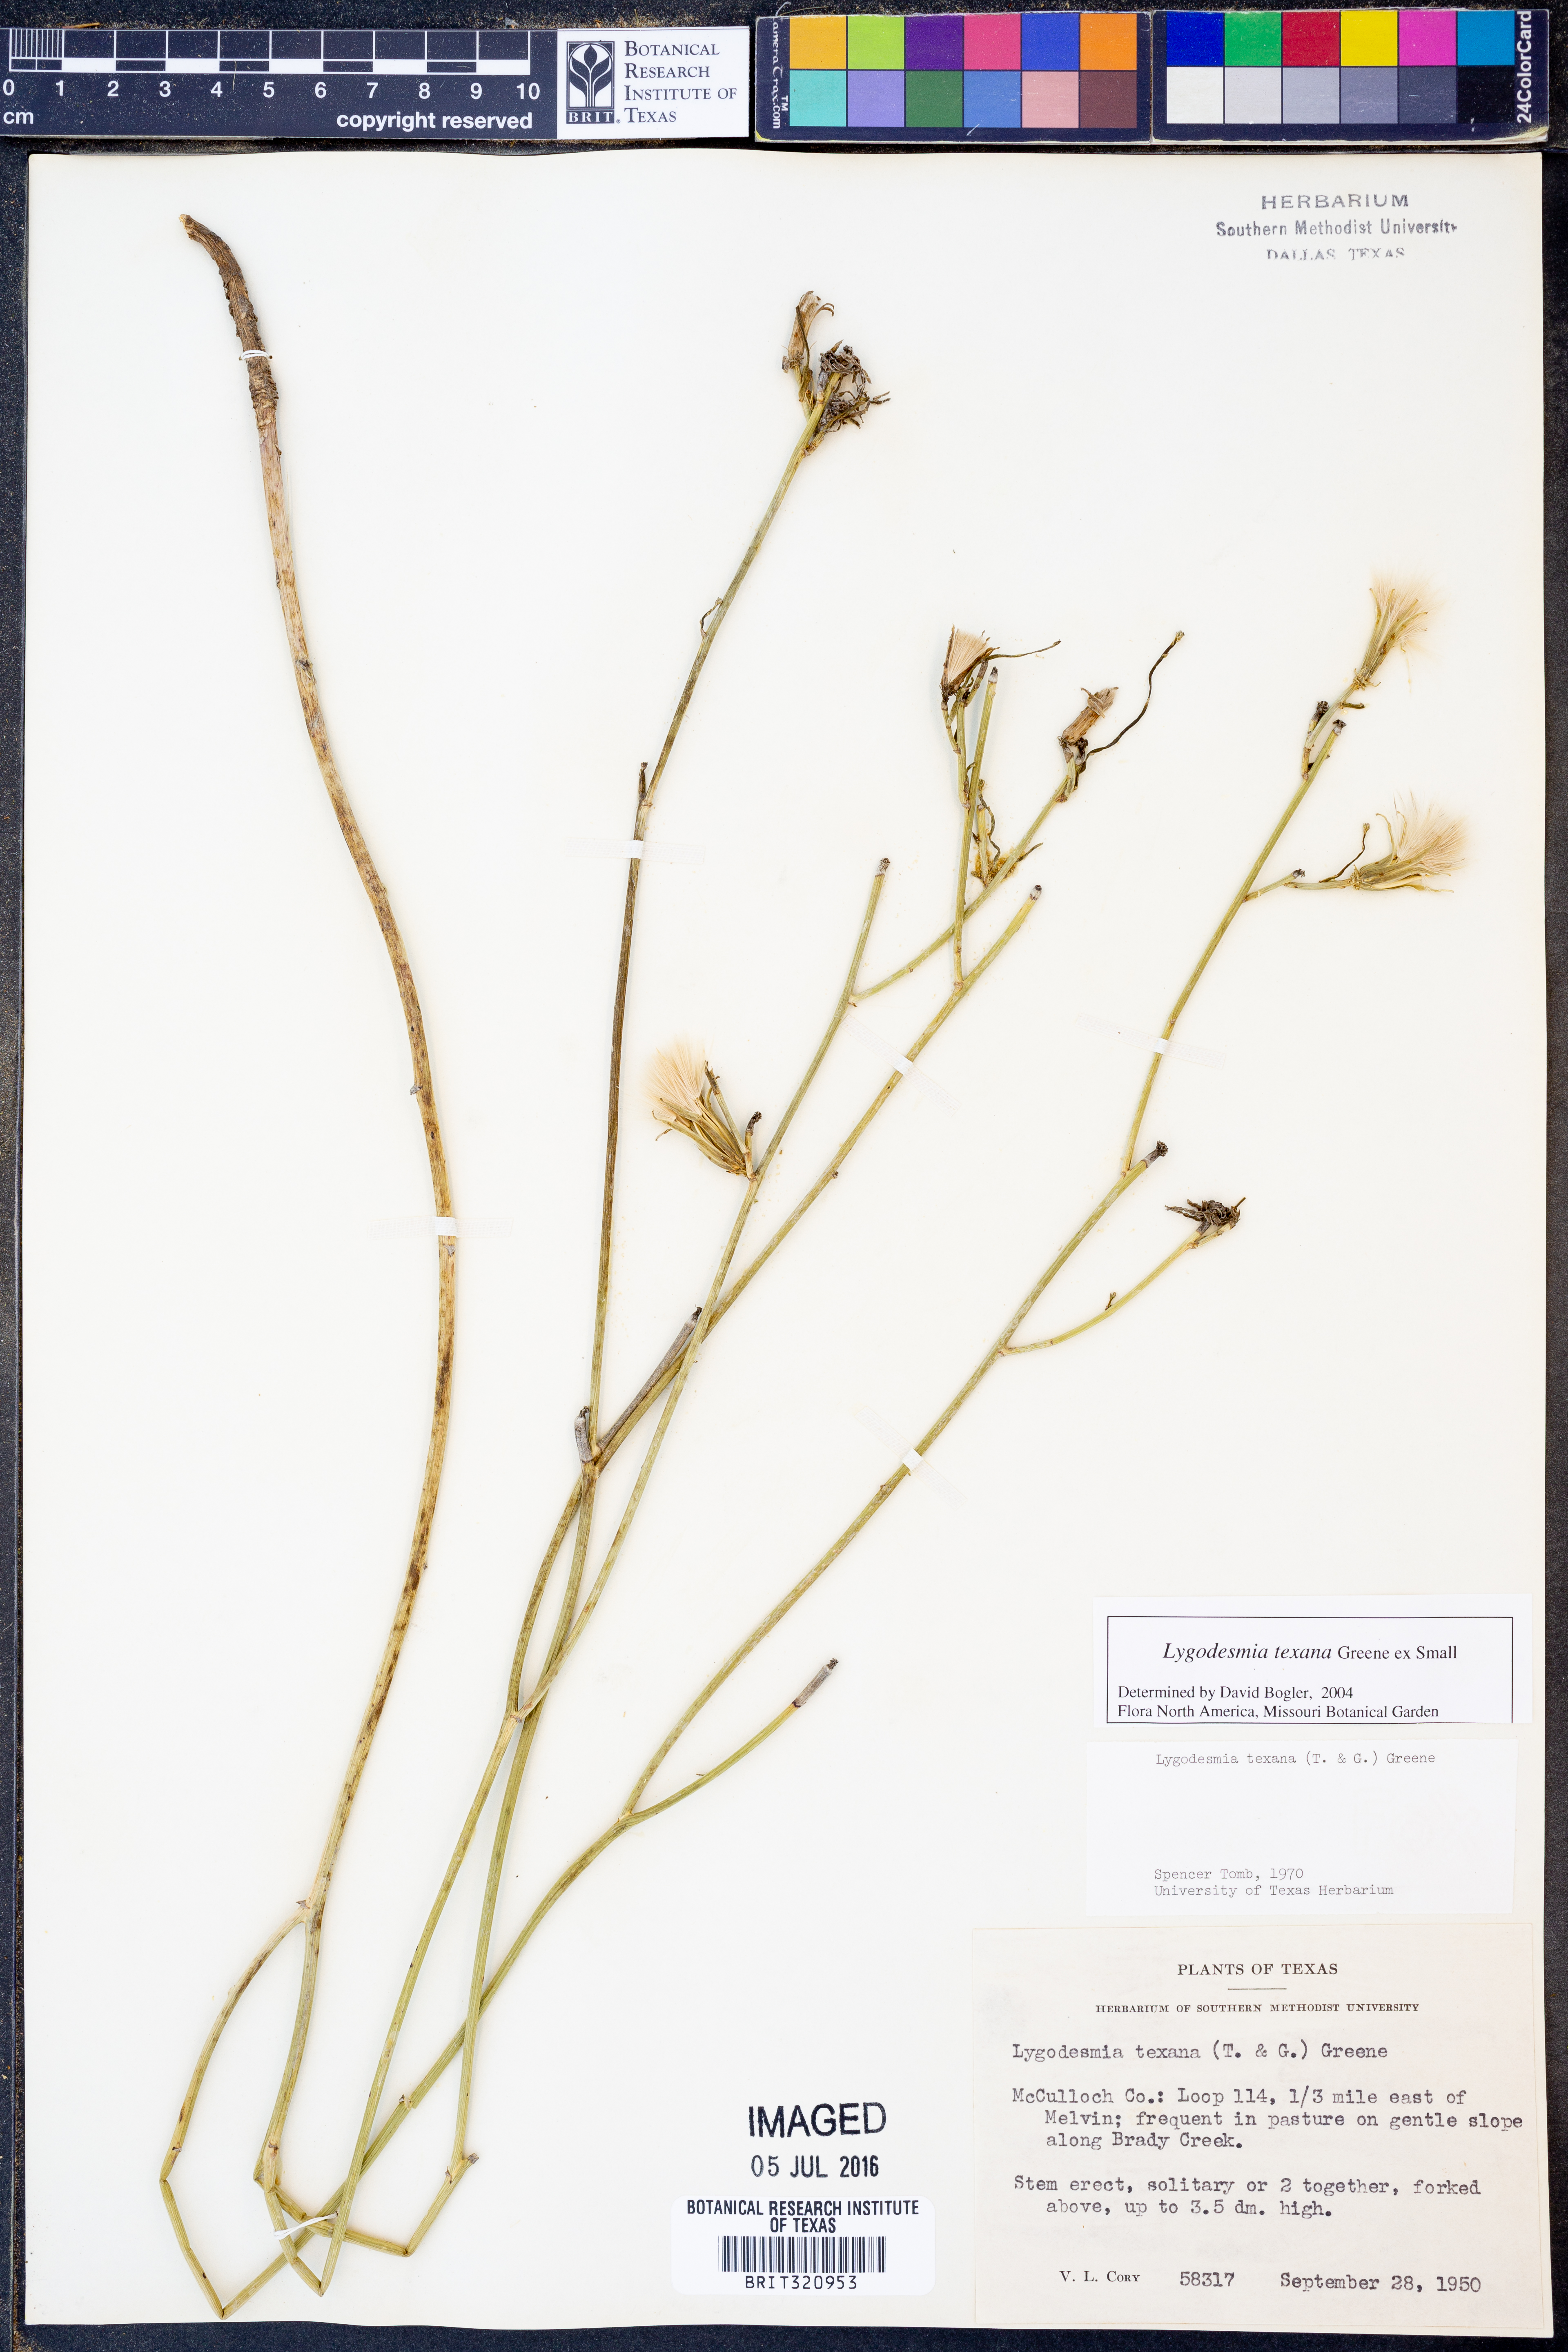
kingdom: Plantae
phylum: Tracheophyta
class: Magnoliopsida
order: Asterales
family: Asteraceae
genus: Lygodesmia
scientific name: Lygodesmia texana
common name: Texas skeleton-plant
